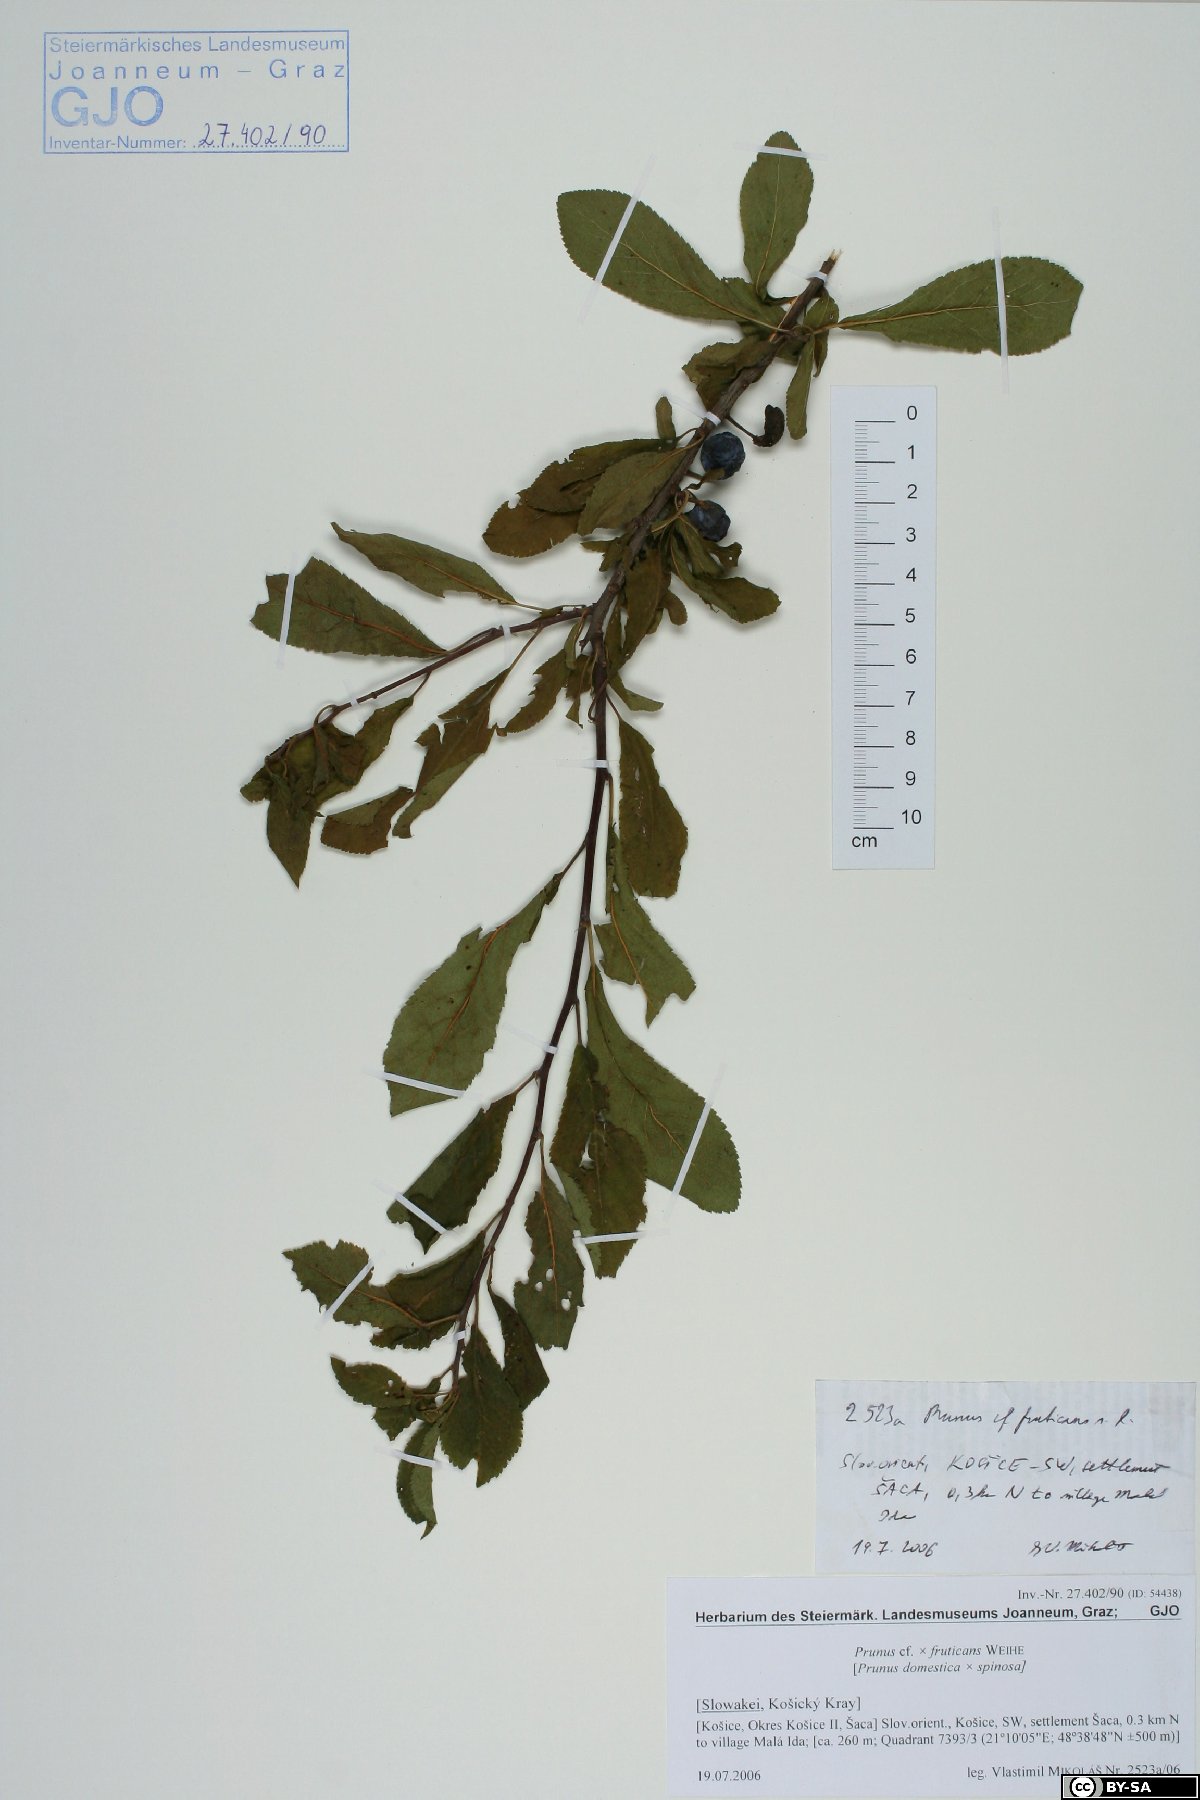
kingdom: Plantae
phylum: Tracheophyta
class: Magnoliopsida
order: Rosales
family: Rosaceae
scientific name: Rosaceae
